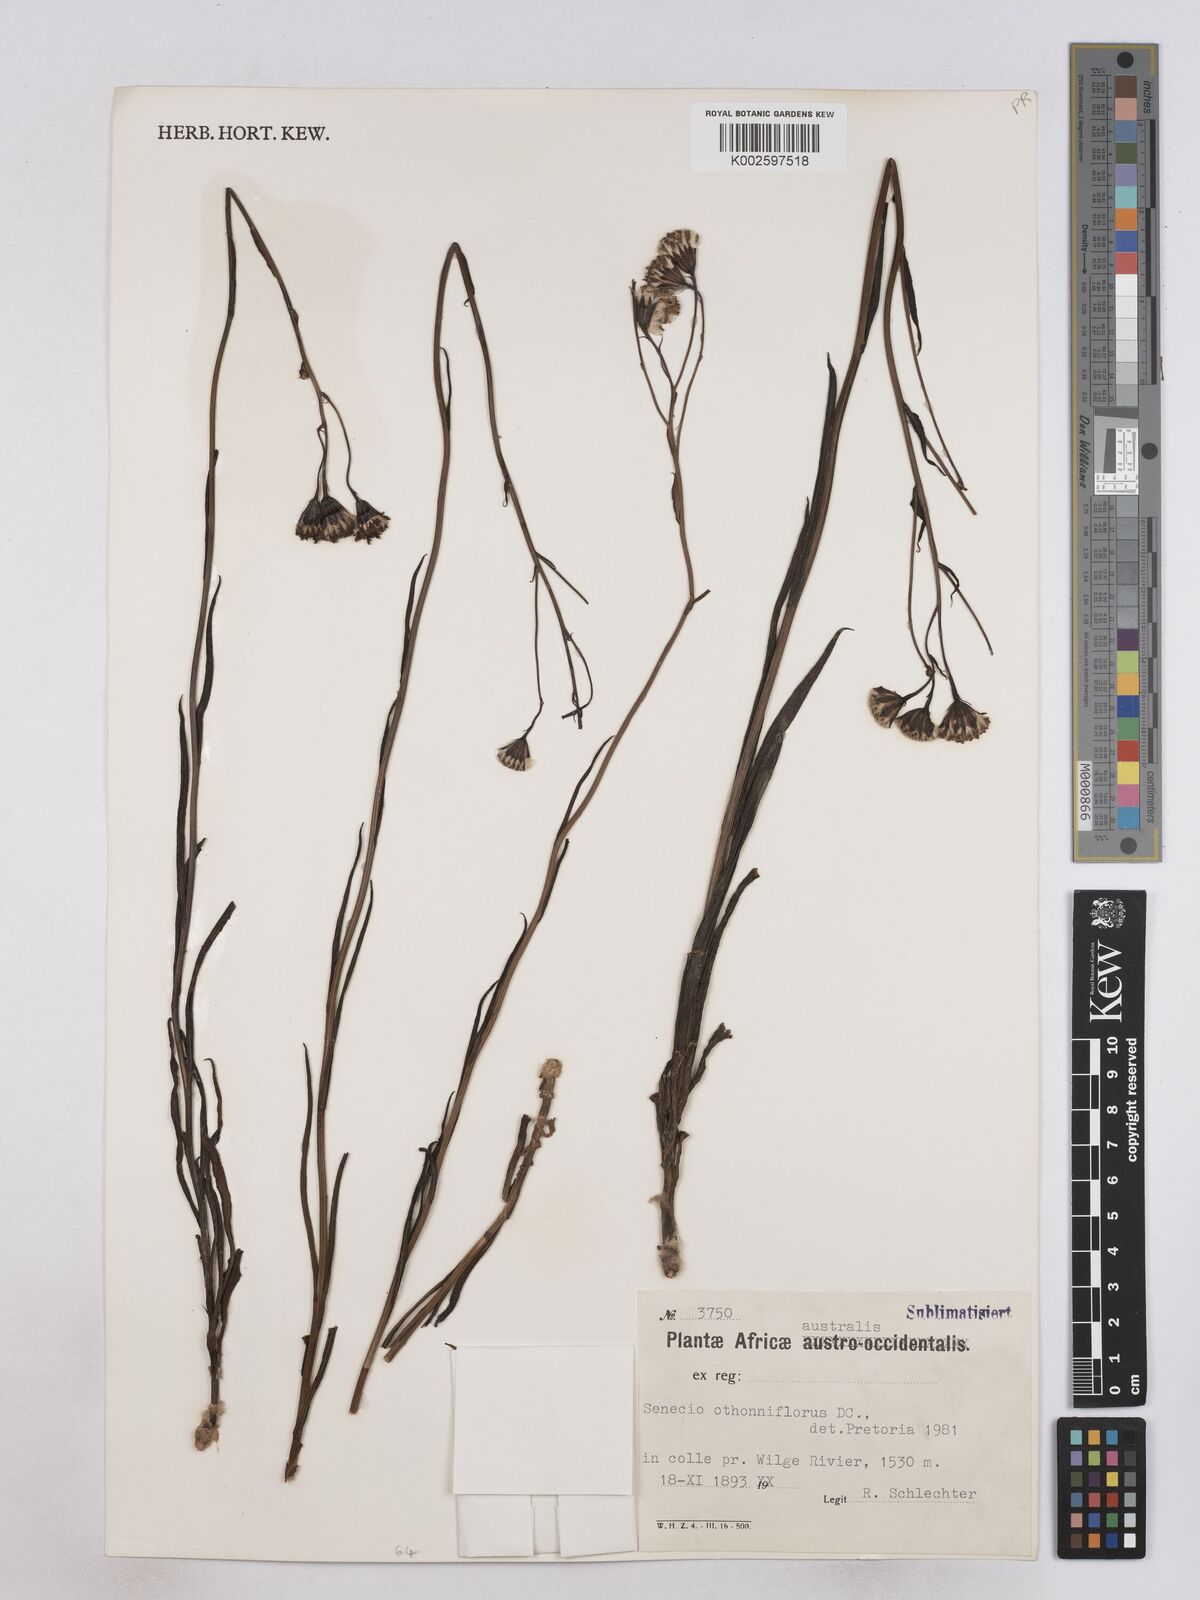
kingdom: Plantae
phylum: Tracheophyta
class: Magnoliopsida
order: Asterales
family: Asteraceae
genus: Senecio
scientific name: Senecio othonniflorus
